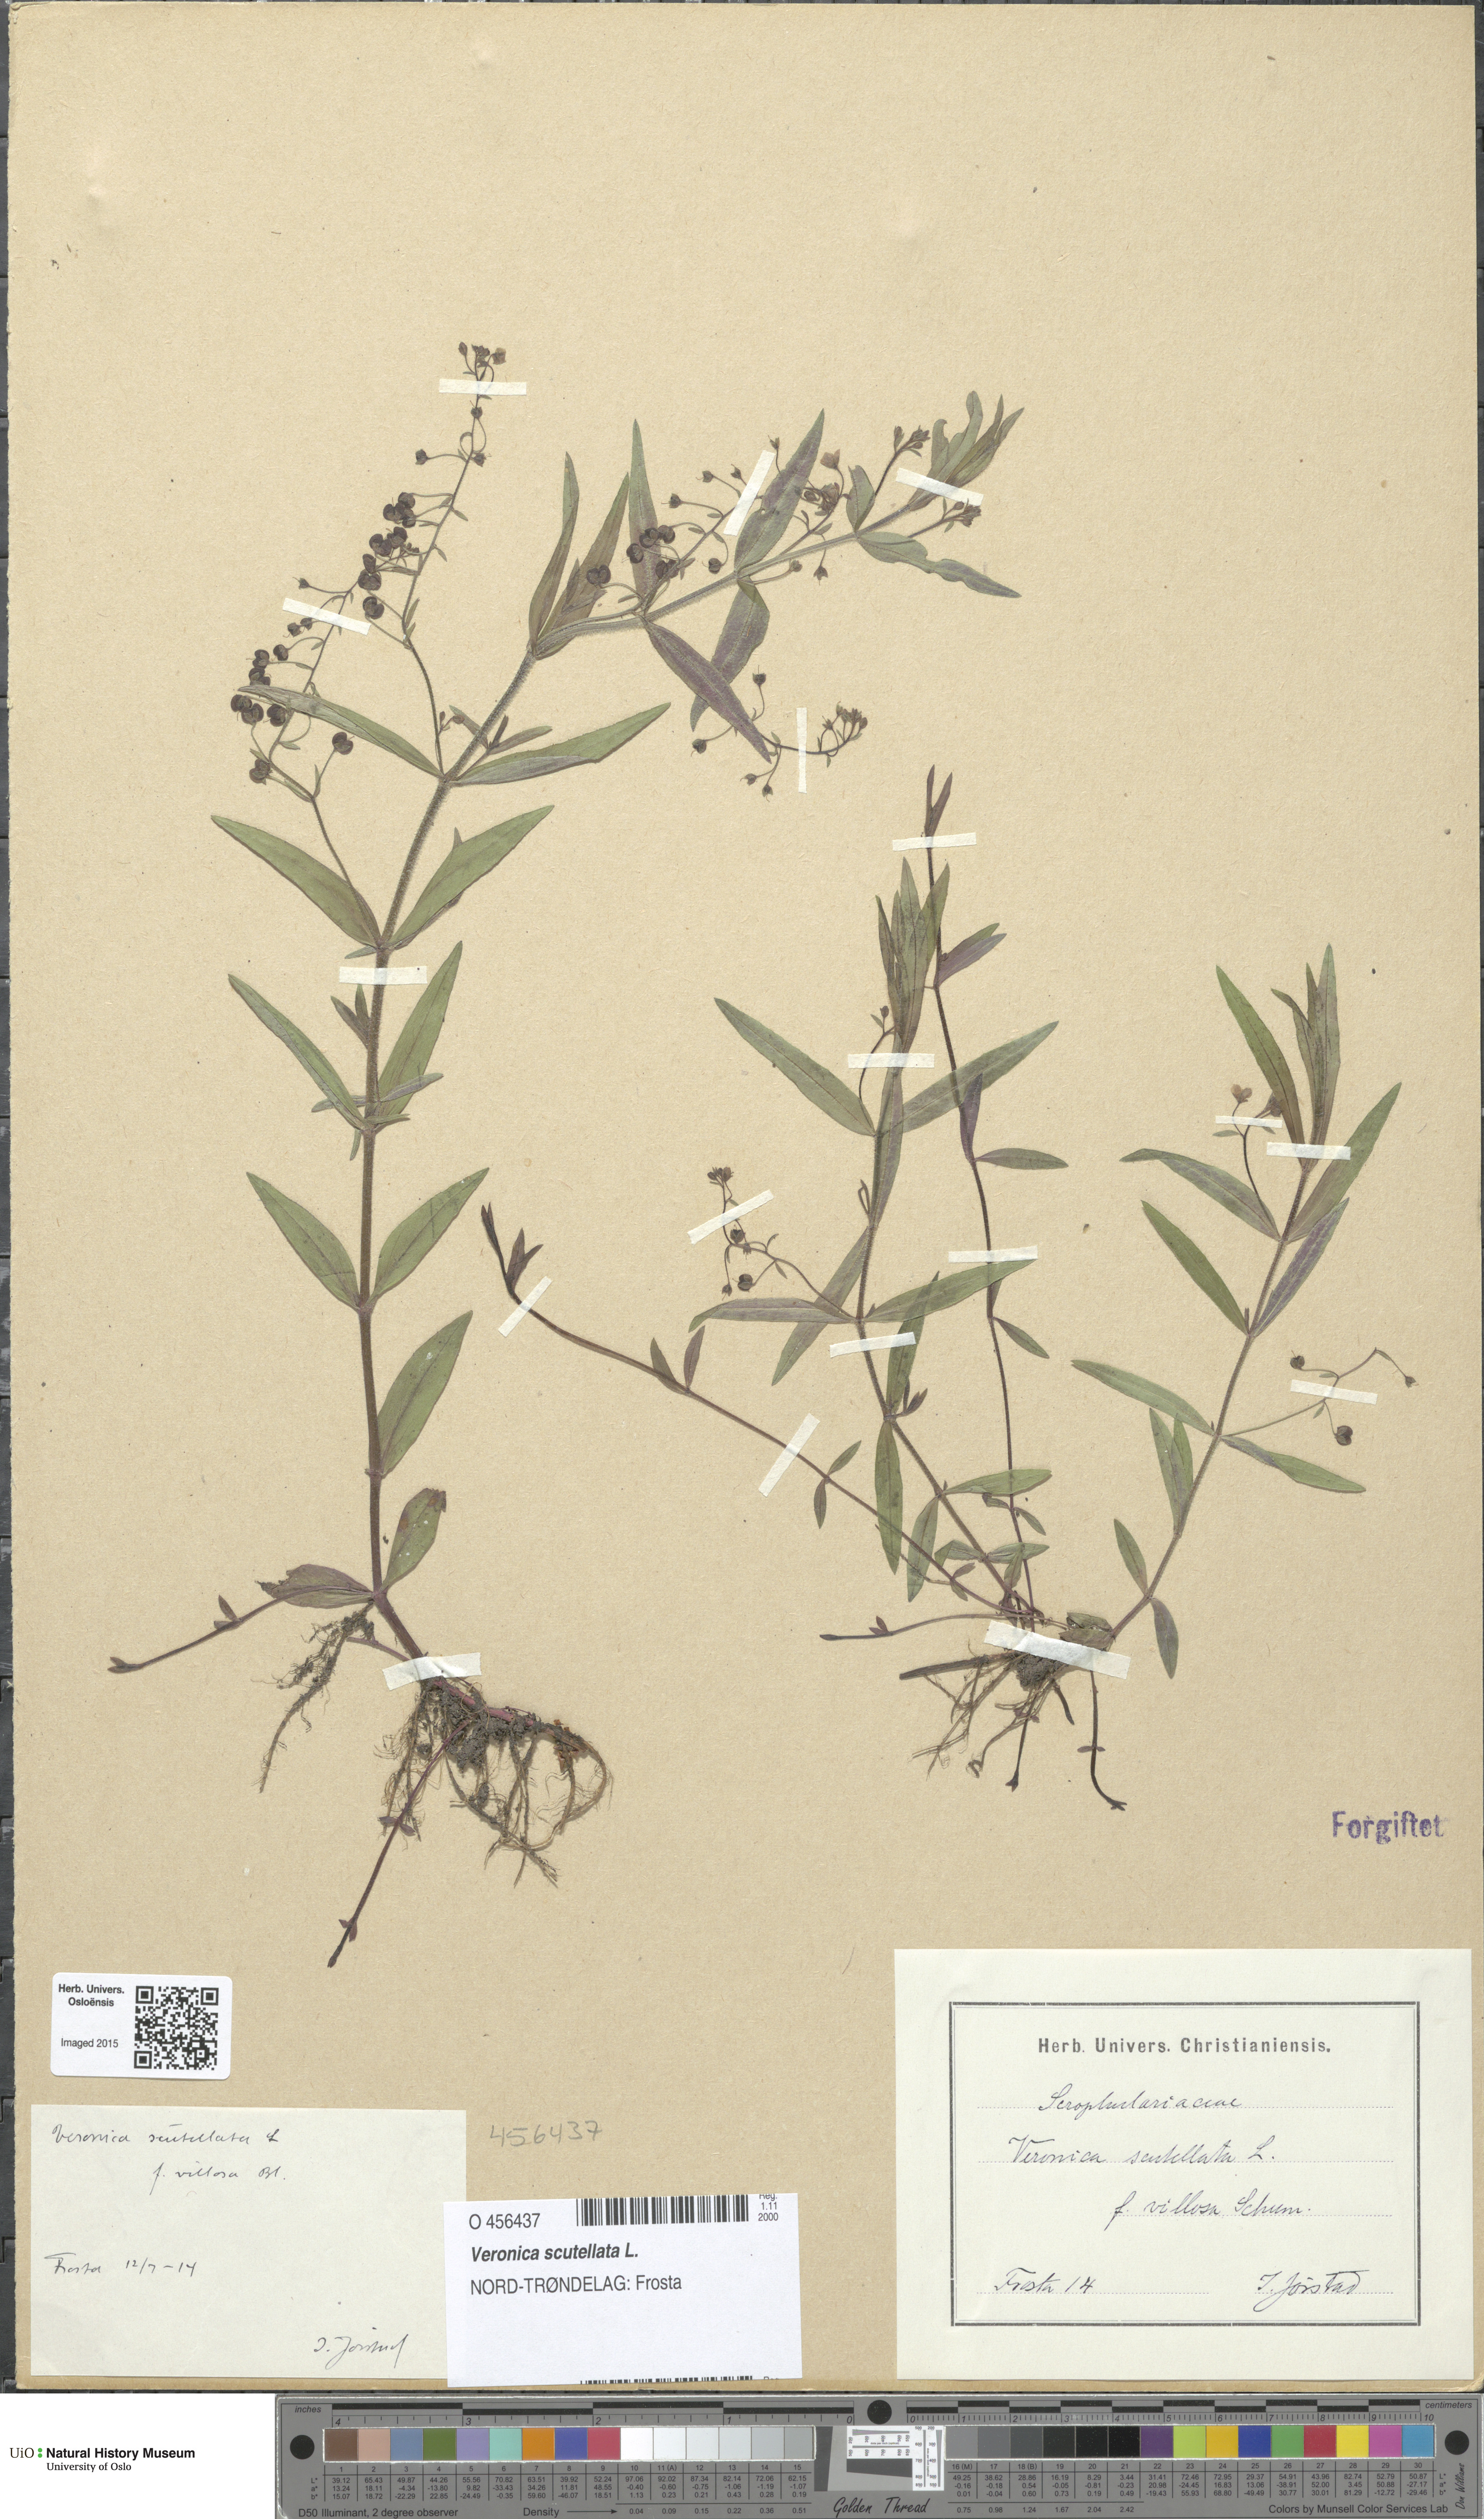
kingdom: Plantae
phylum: Tracheophyta
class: Magnoliopsida
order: Lamiales
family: Plantaginaceae
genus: Veronica
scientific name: Veronica scutellata
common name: Marsh speedwell
